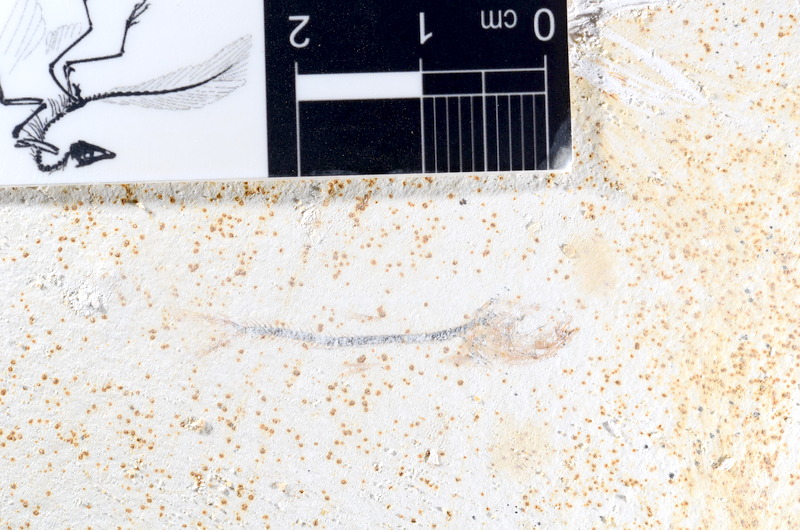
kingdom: Animalia
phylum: Chordata
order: Salmoniformes
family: Orthogonikleithridae
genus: Orthogonikleithrus
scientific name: Orthogonikleithrus hoelli
